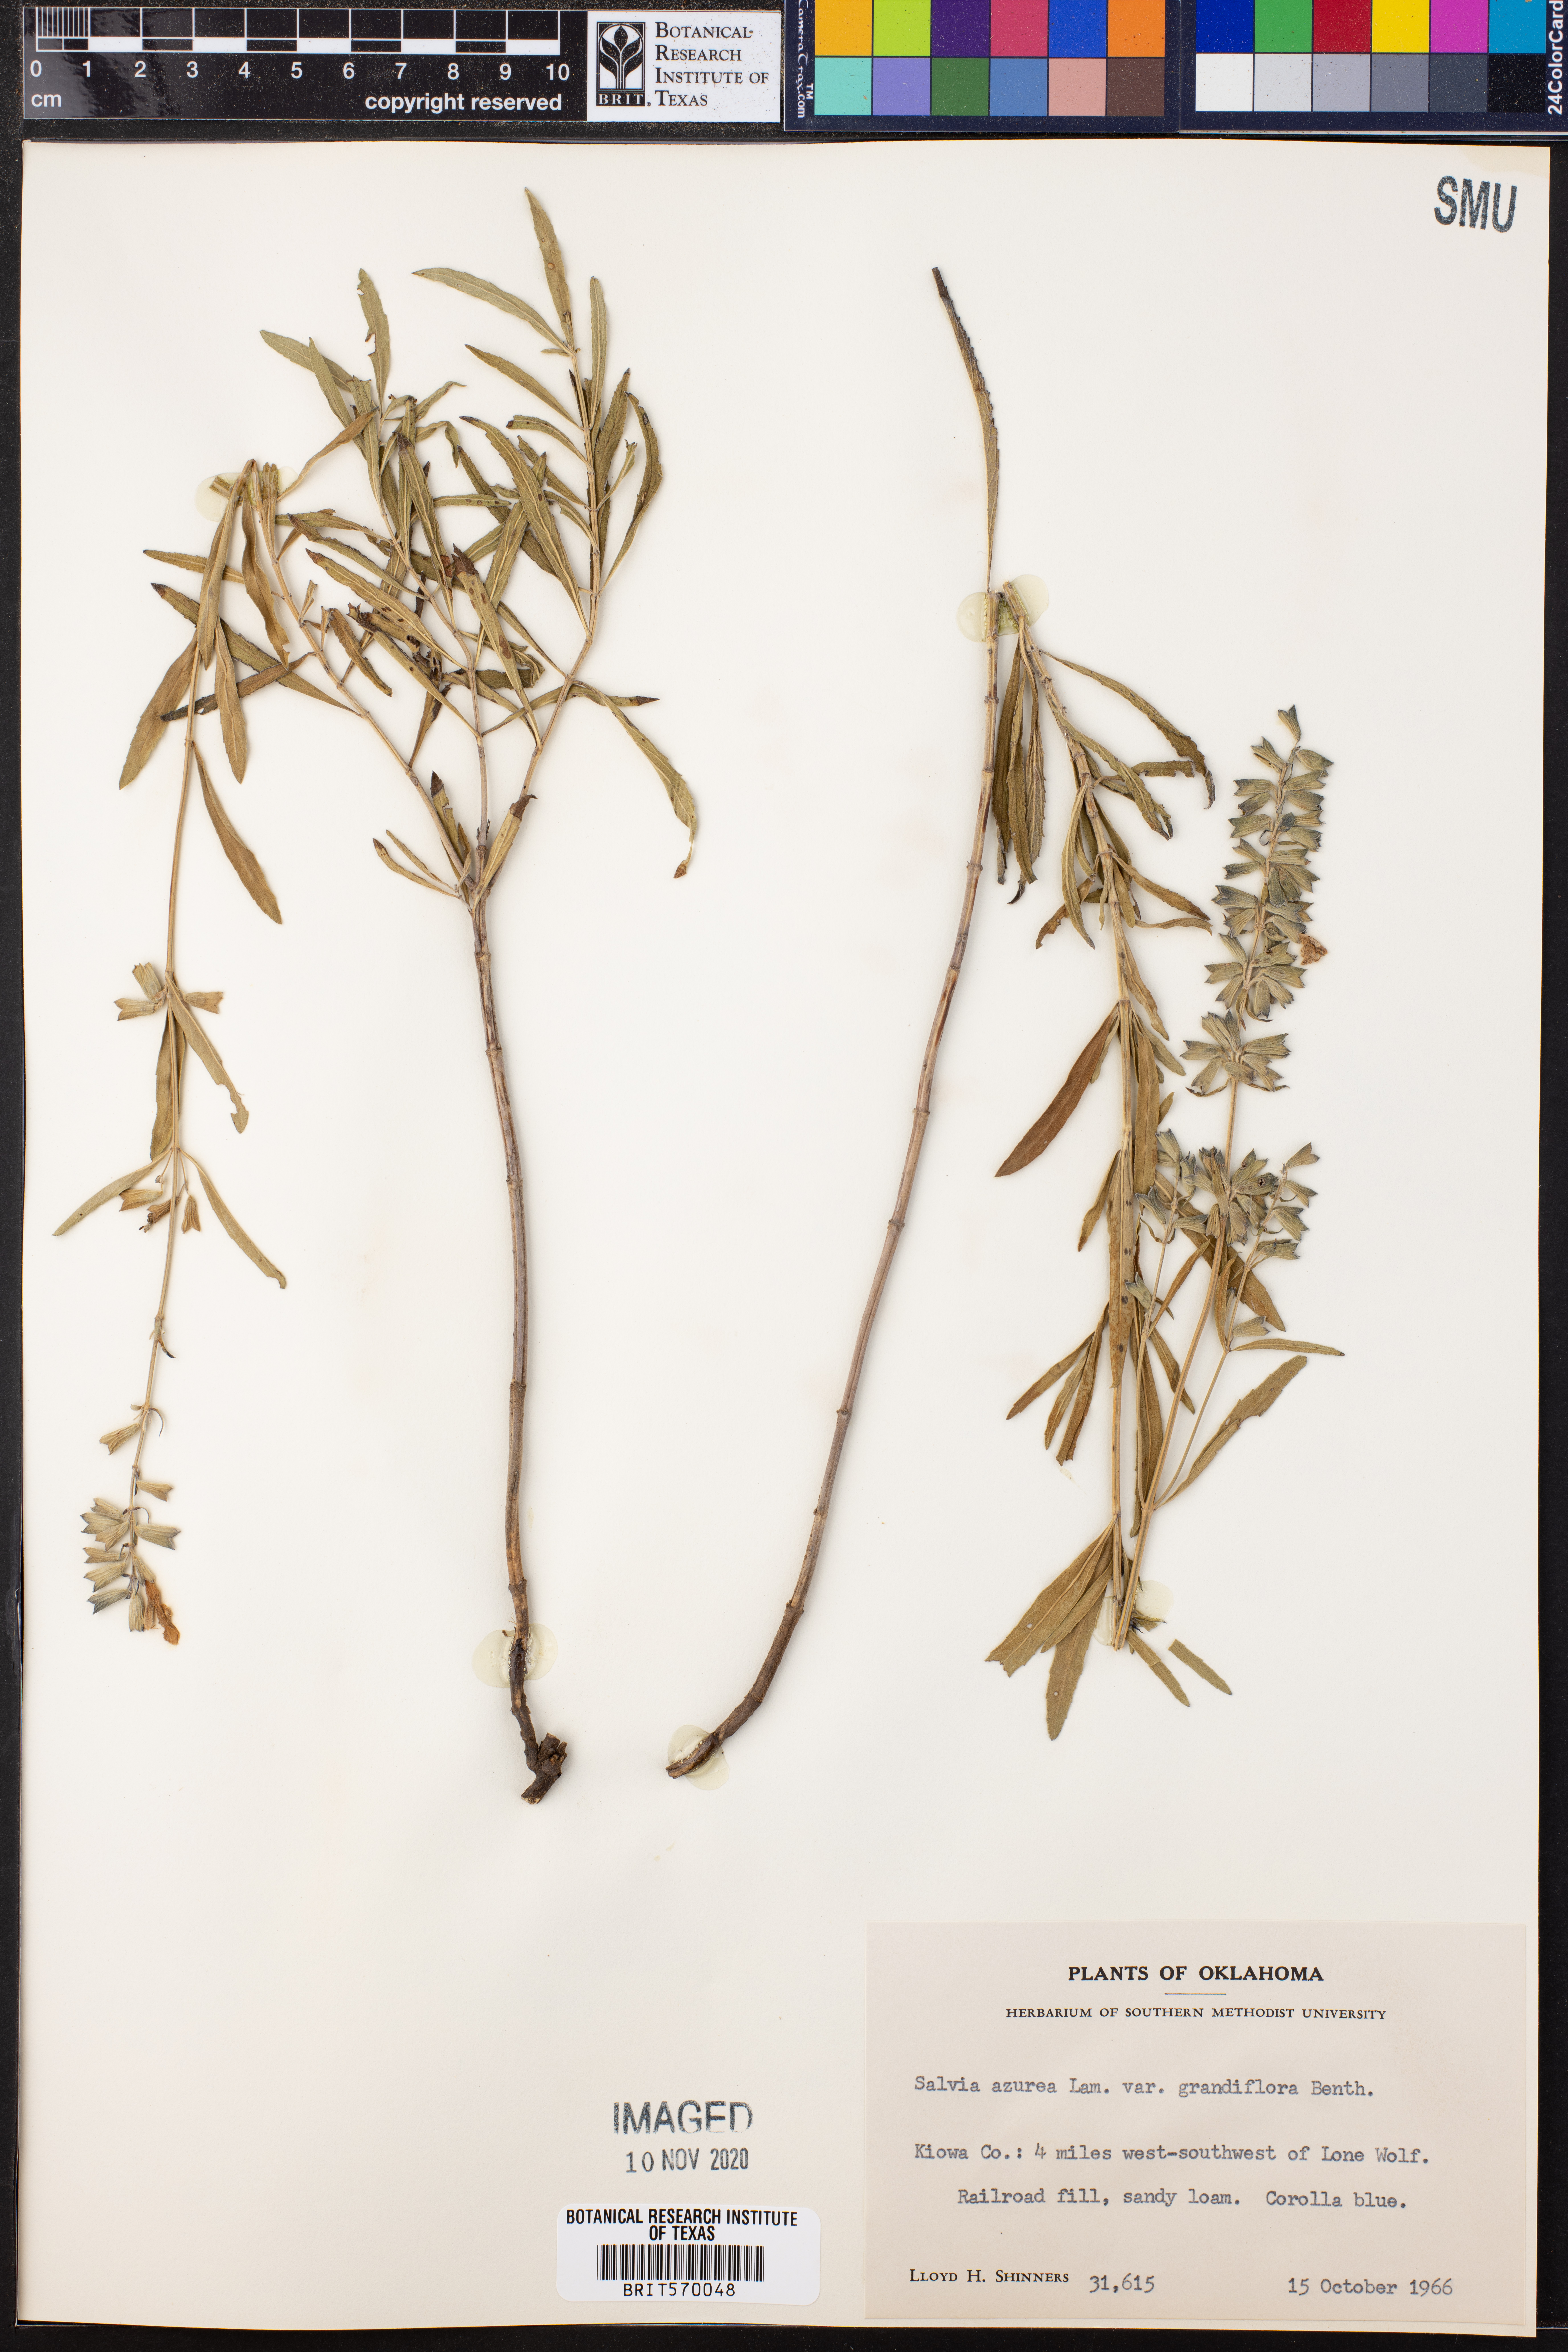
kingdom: Plantae
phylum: Tracheophyta
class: Magnoliopsida
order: Lamiales
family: Lamiaceae
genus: Salvia
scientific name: Salvia azurea
